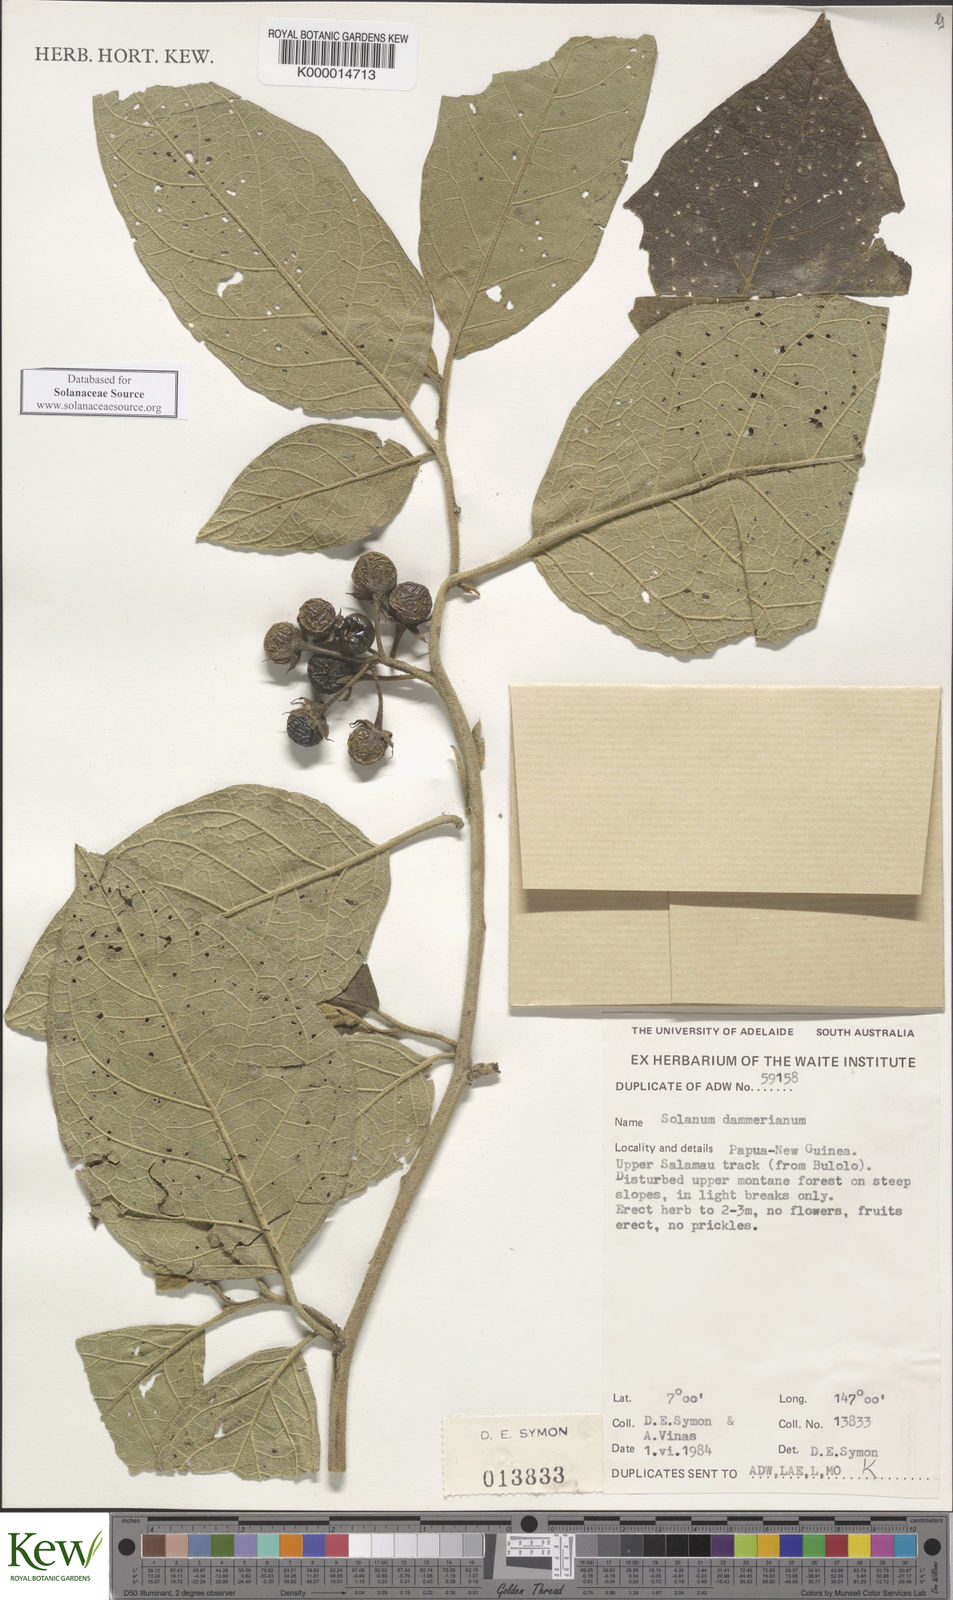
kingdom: Plantae
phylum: Tracheophyta
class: Magnoliopsida
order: Solanales
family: Solanaceae
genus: Solanum
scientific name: Solanum dammerianum
